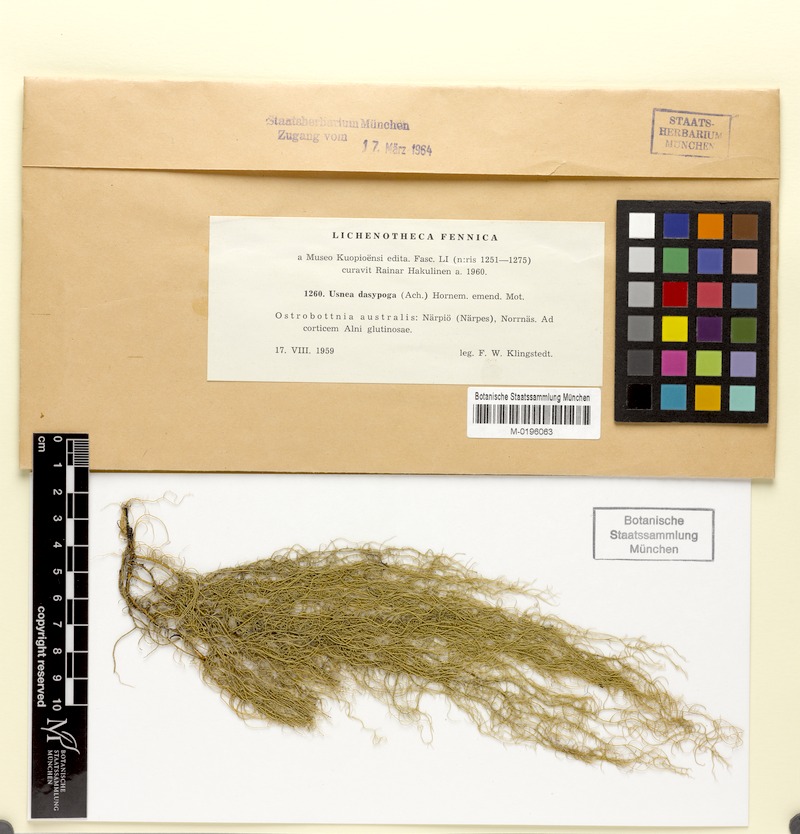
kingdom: Fungi
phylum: Ascomycota
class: Lecanoromycetes
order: Lecanorales
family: Parmeliaceae
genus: Usnea
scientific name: Usnea dasopoga
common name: Fishbone beard lichen
